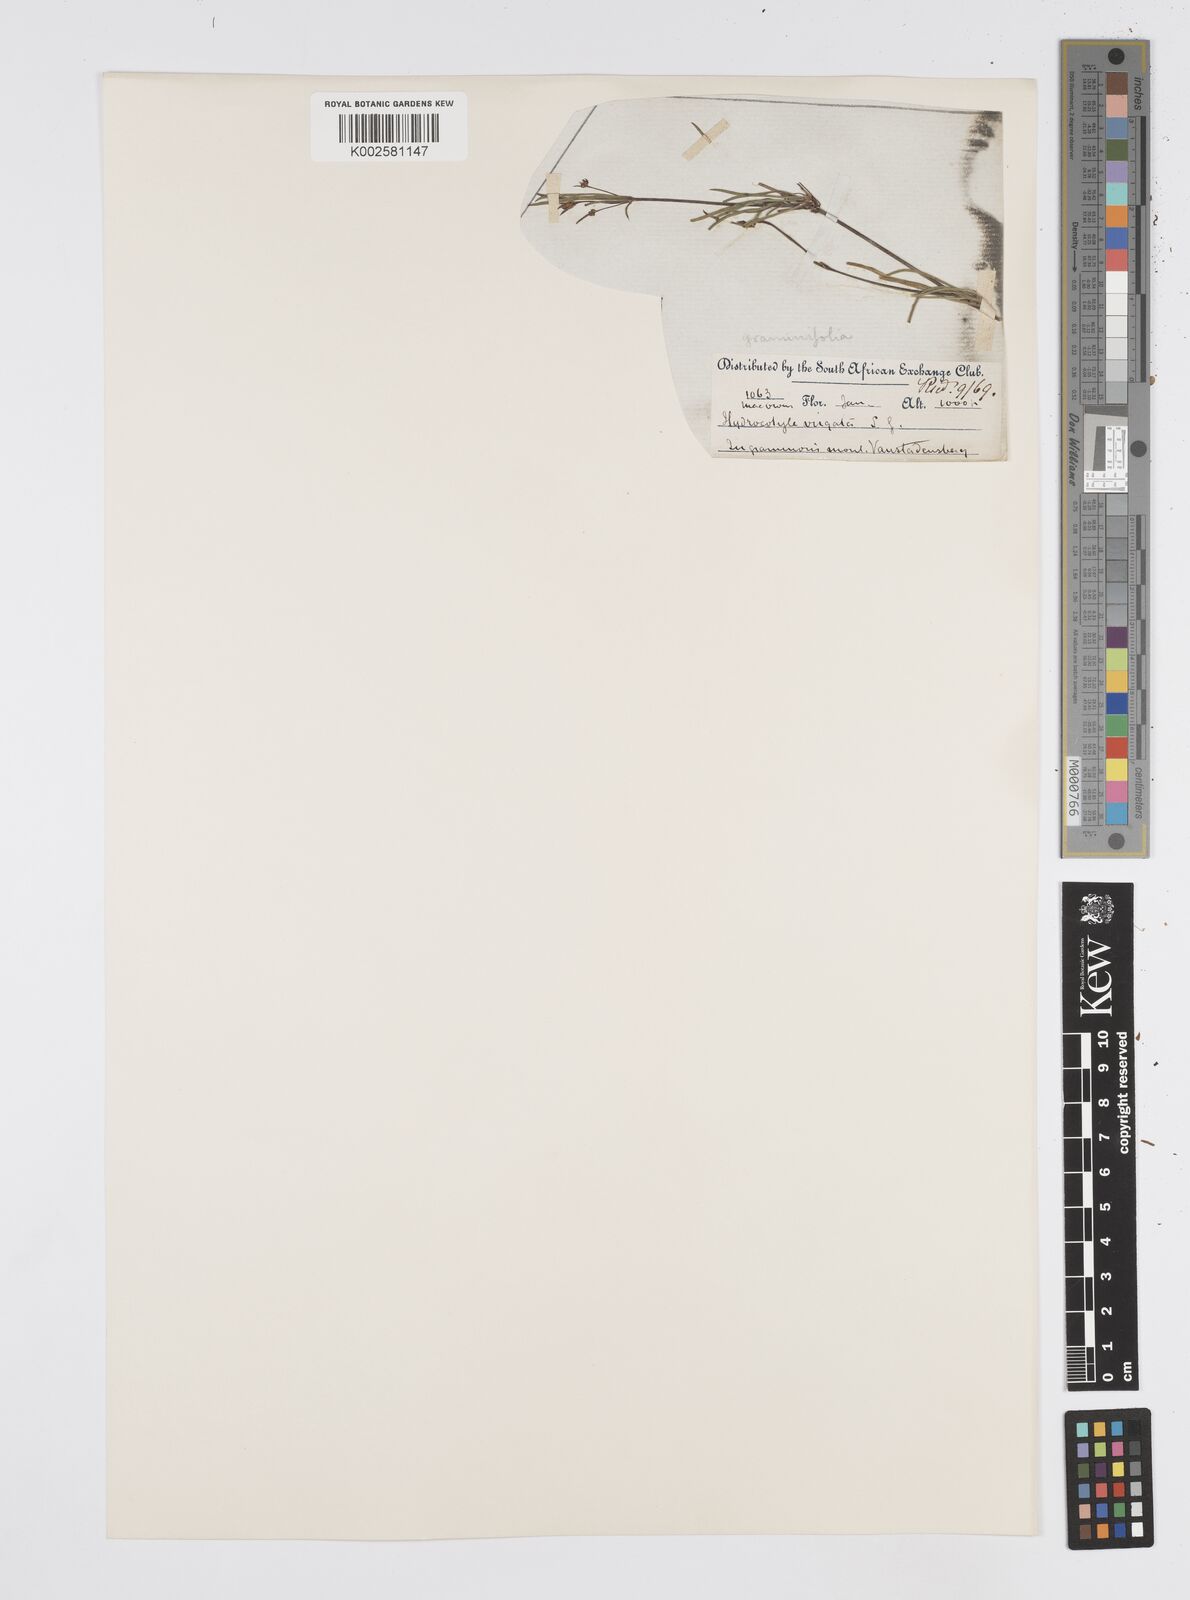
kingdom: Plantae
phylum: Tracheophyta
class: Magnoliopsida
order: Apiales
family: Apiaceae
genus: Centella
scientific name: Centella graminifolia
